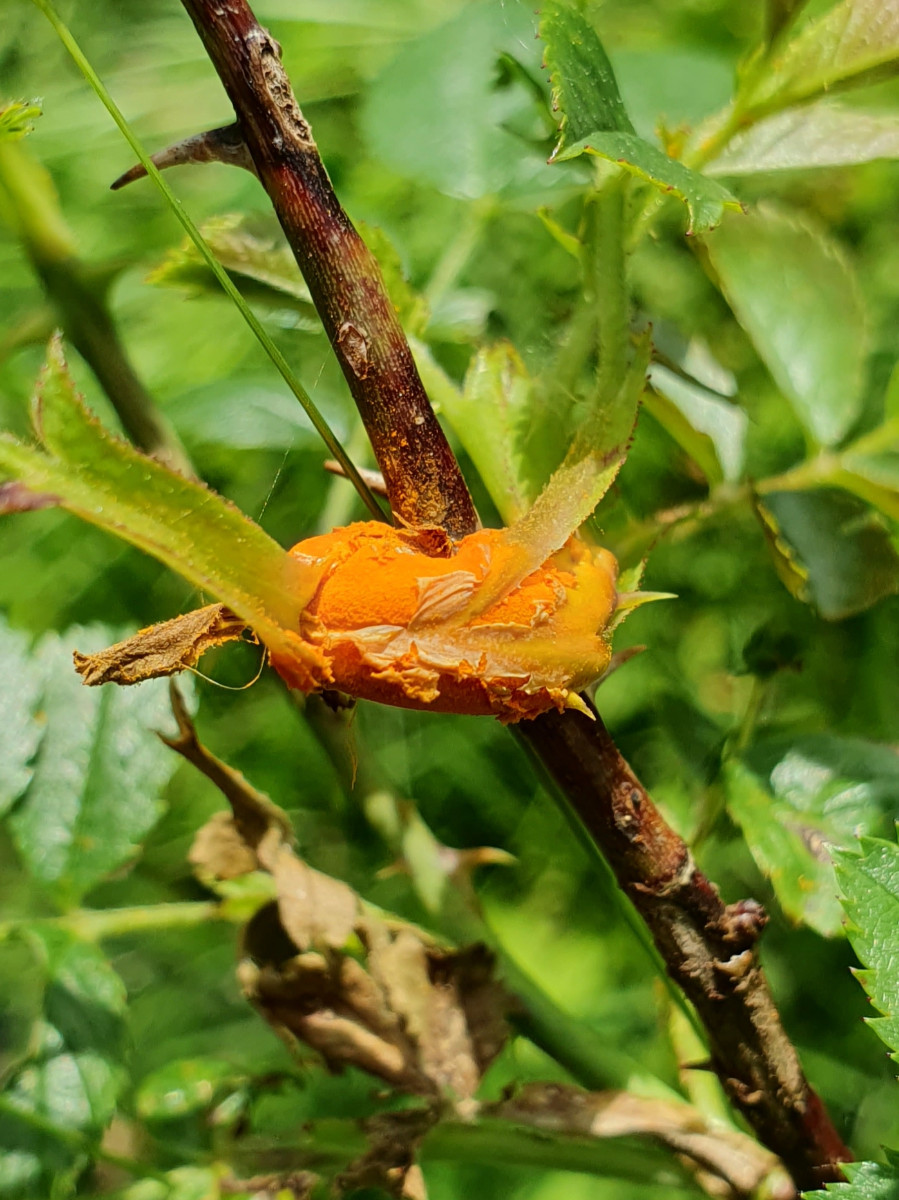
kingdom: Fungi
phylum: Basidiomycota
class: Pucciniomycetes
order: Pucciniales
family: Phragmidiaceae
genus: Phragmidium
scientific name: Phragmidium
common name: flercellerust
